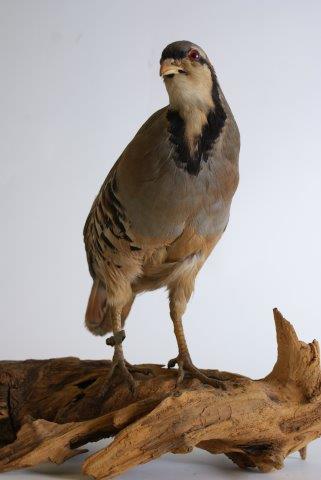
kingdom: Animalia
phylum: Chordata
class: Aves
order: Galliformes
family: Phasianidae
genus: Alectoris
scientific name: Alectoris chukar
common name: Aziatische steenpatrijs
